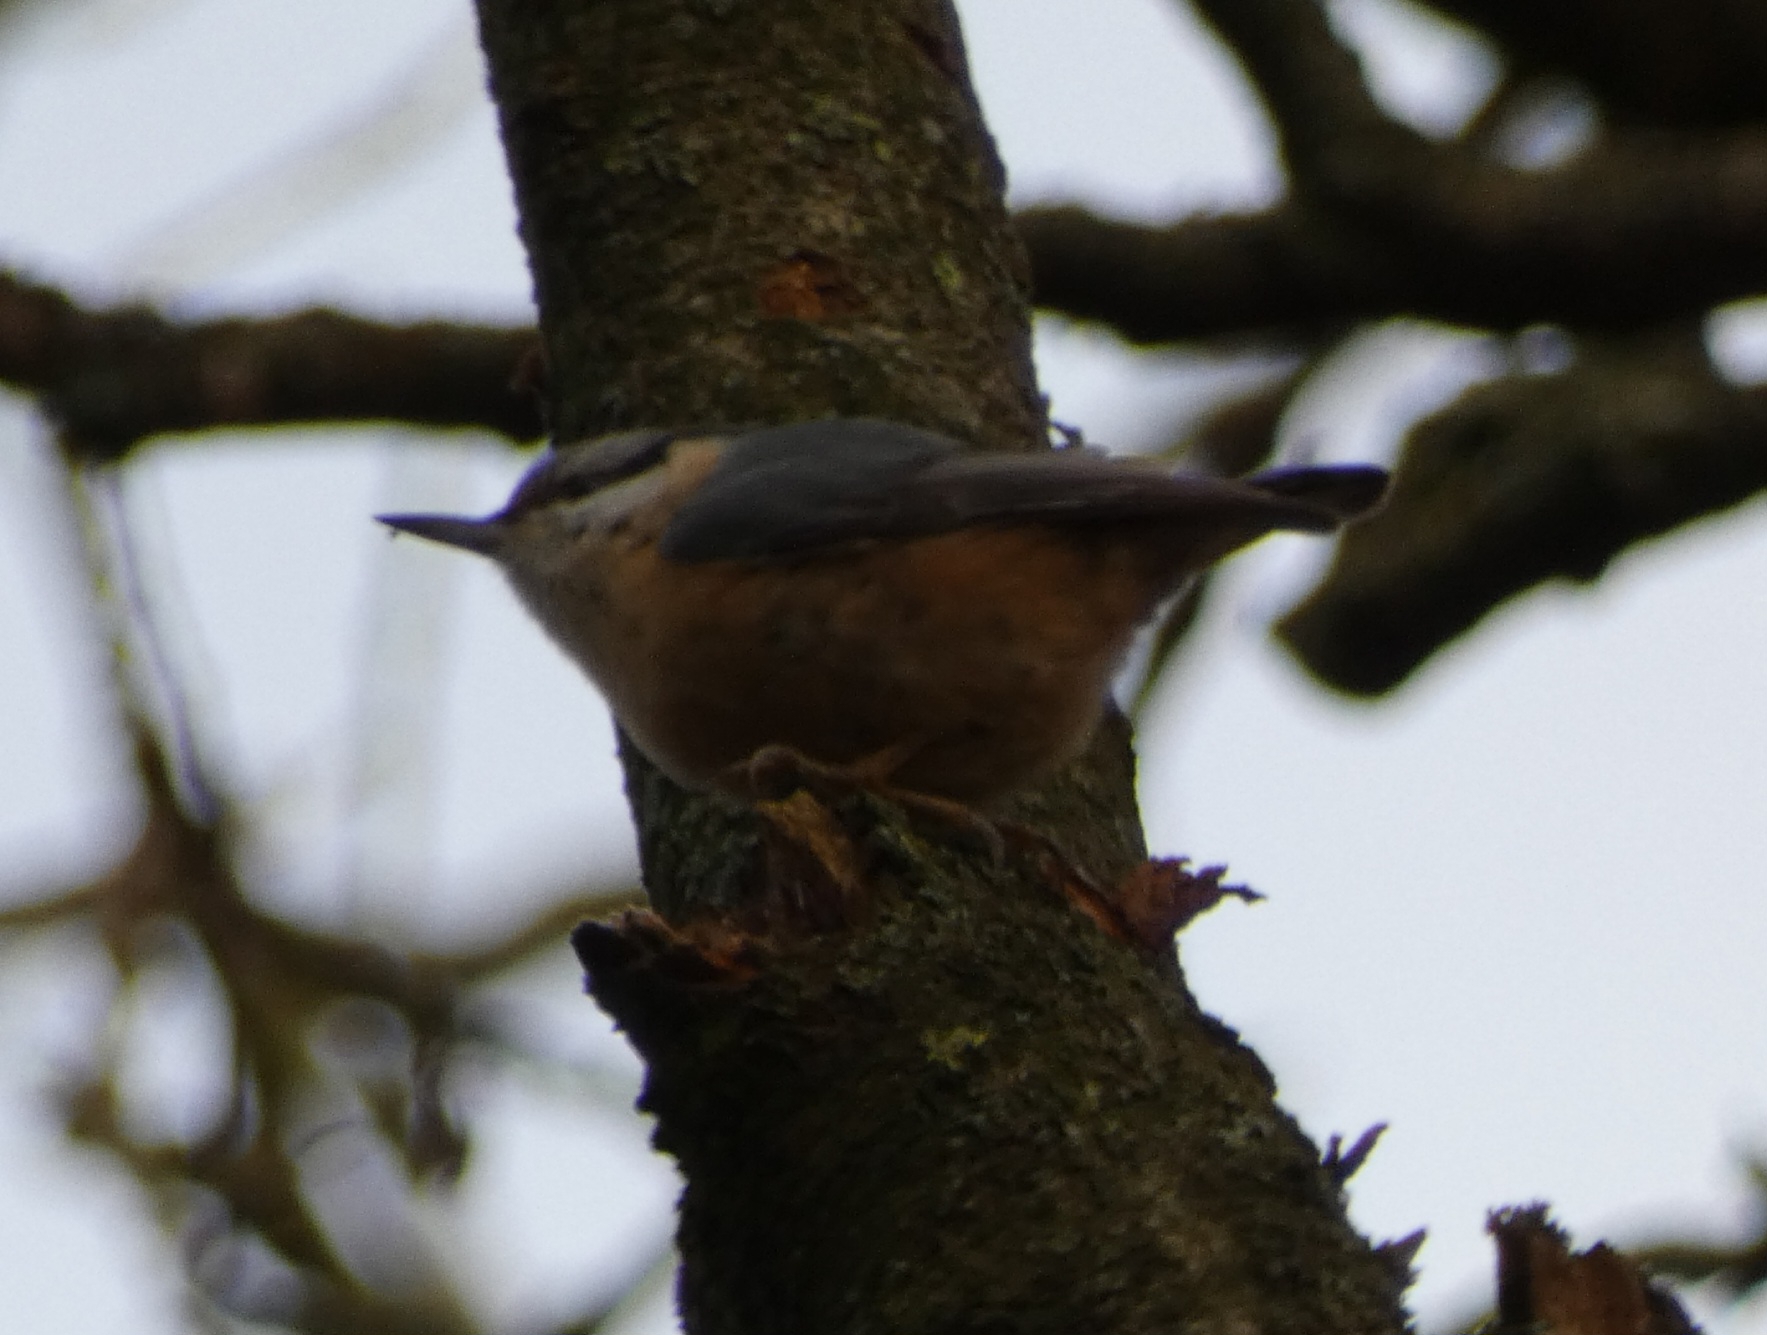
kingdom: Animalia
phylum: Chordata
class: Aves
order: Passeriformes
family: Sittidae
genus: Sitta
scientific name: Sitta europaea
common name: Spætmejse
